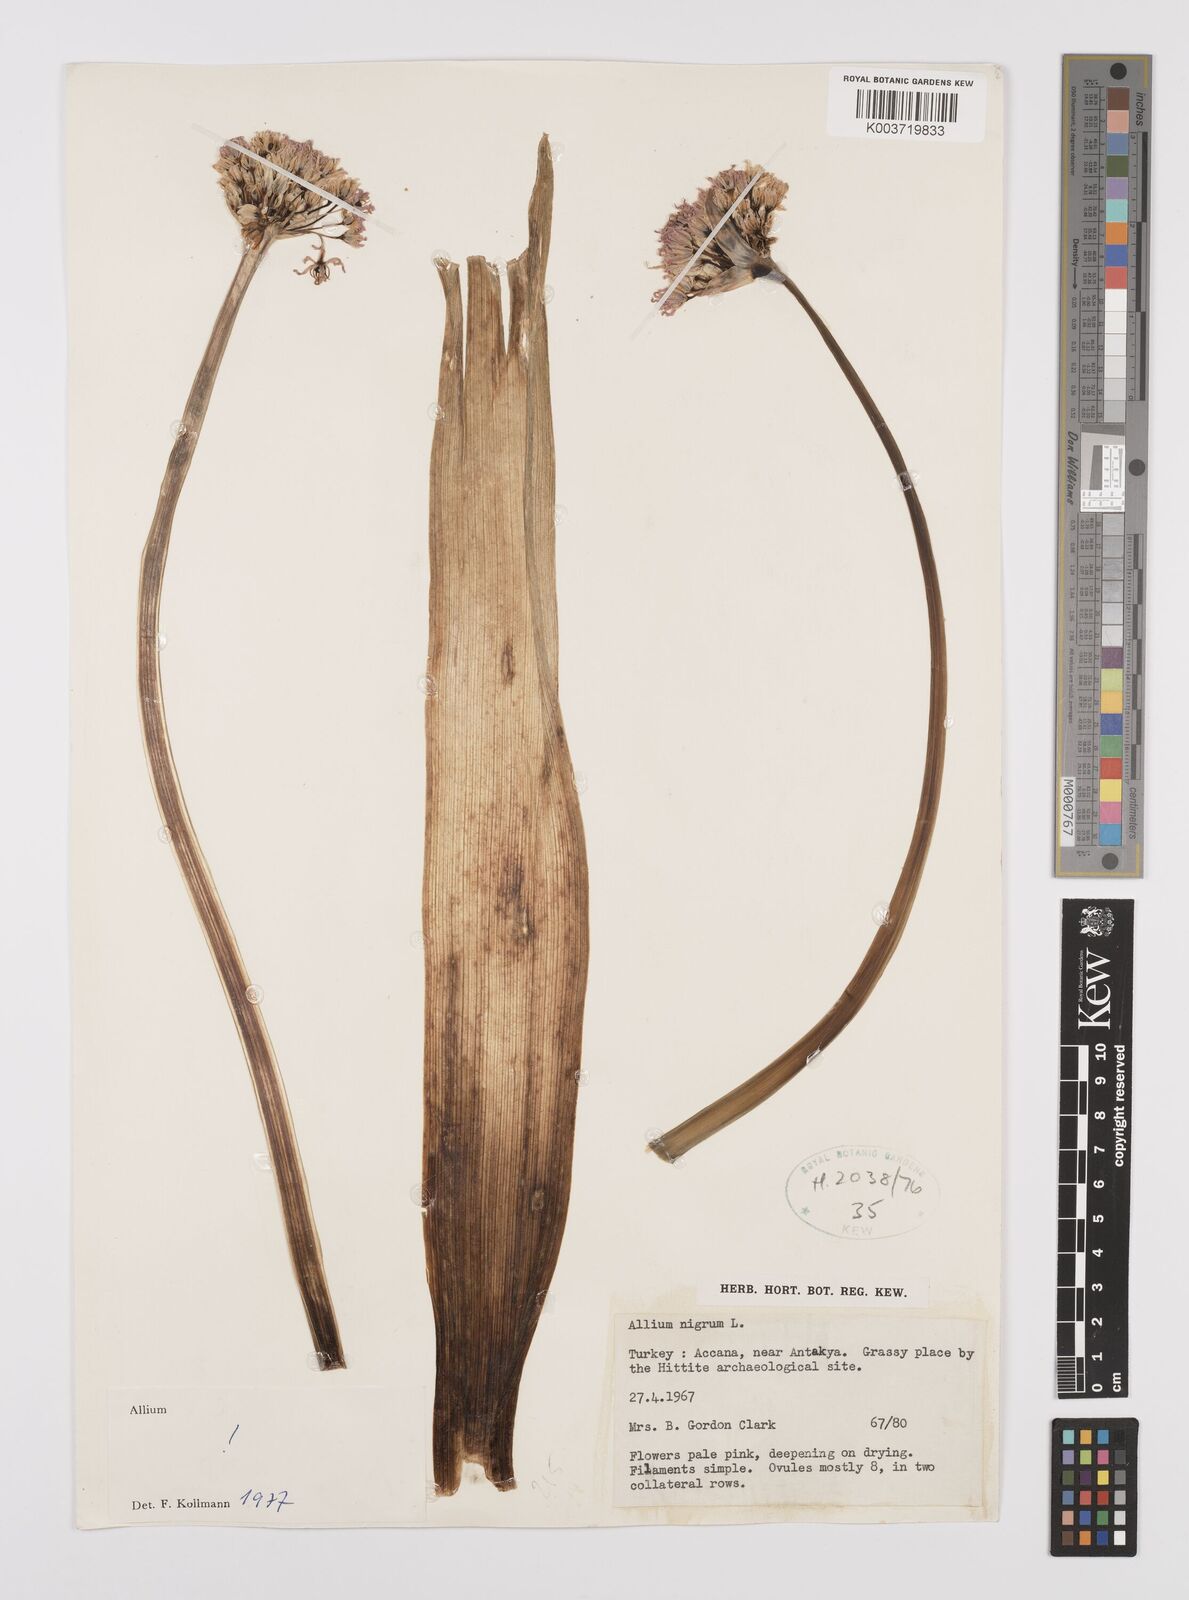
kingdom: Plantae
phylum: Tracheophyta
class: Liliopsida
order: Asparagales
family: Amaryllidaceae
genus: Allium
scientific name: Allium nigrum
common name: Black garlic
